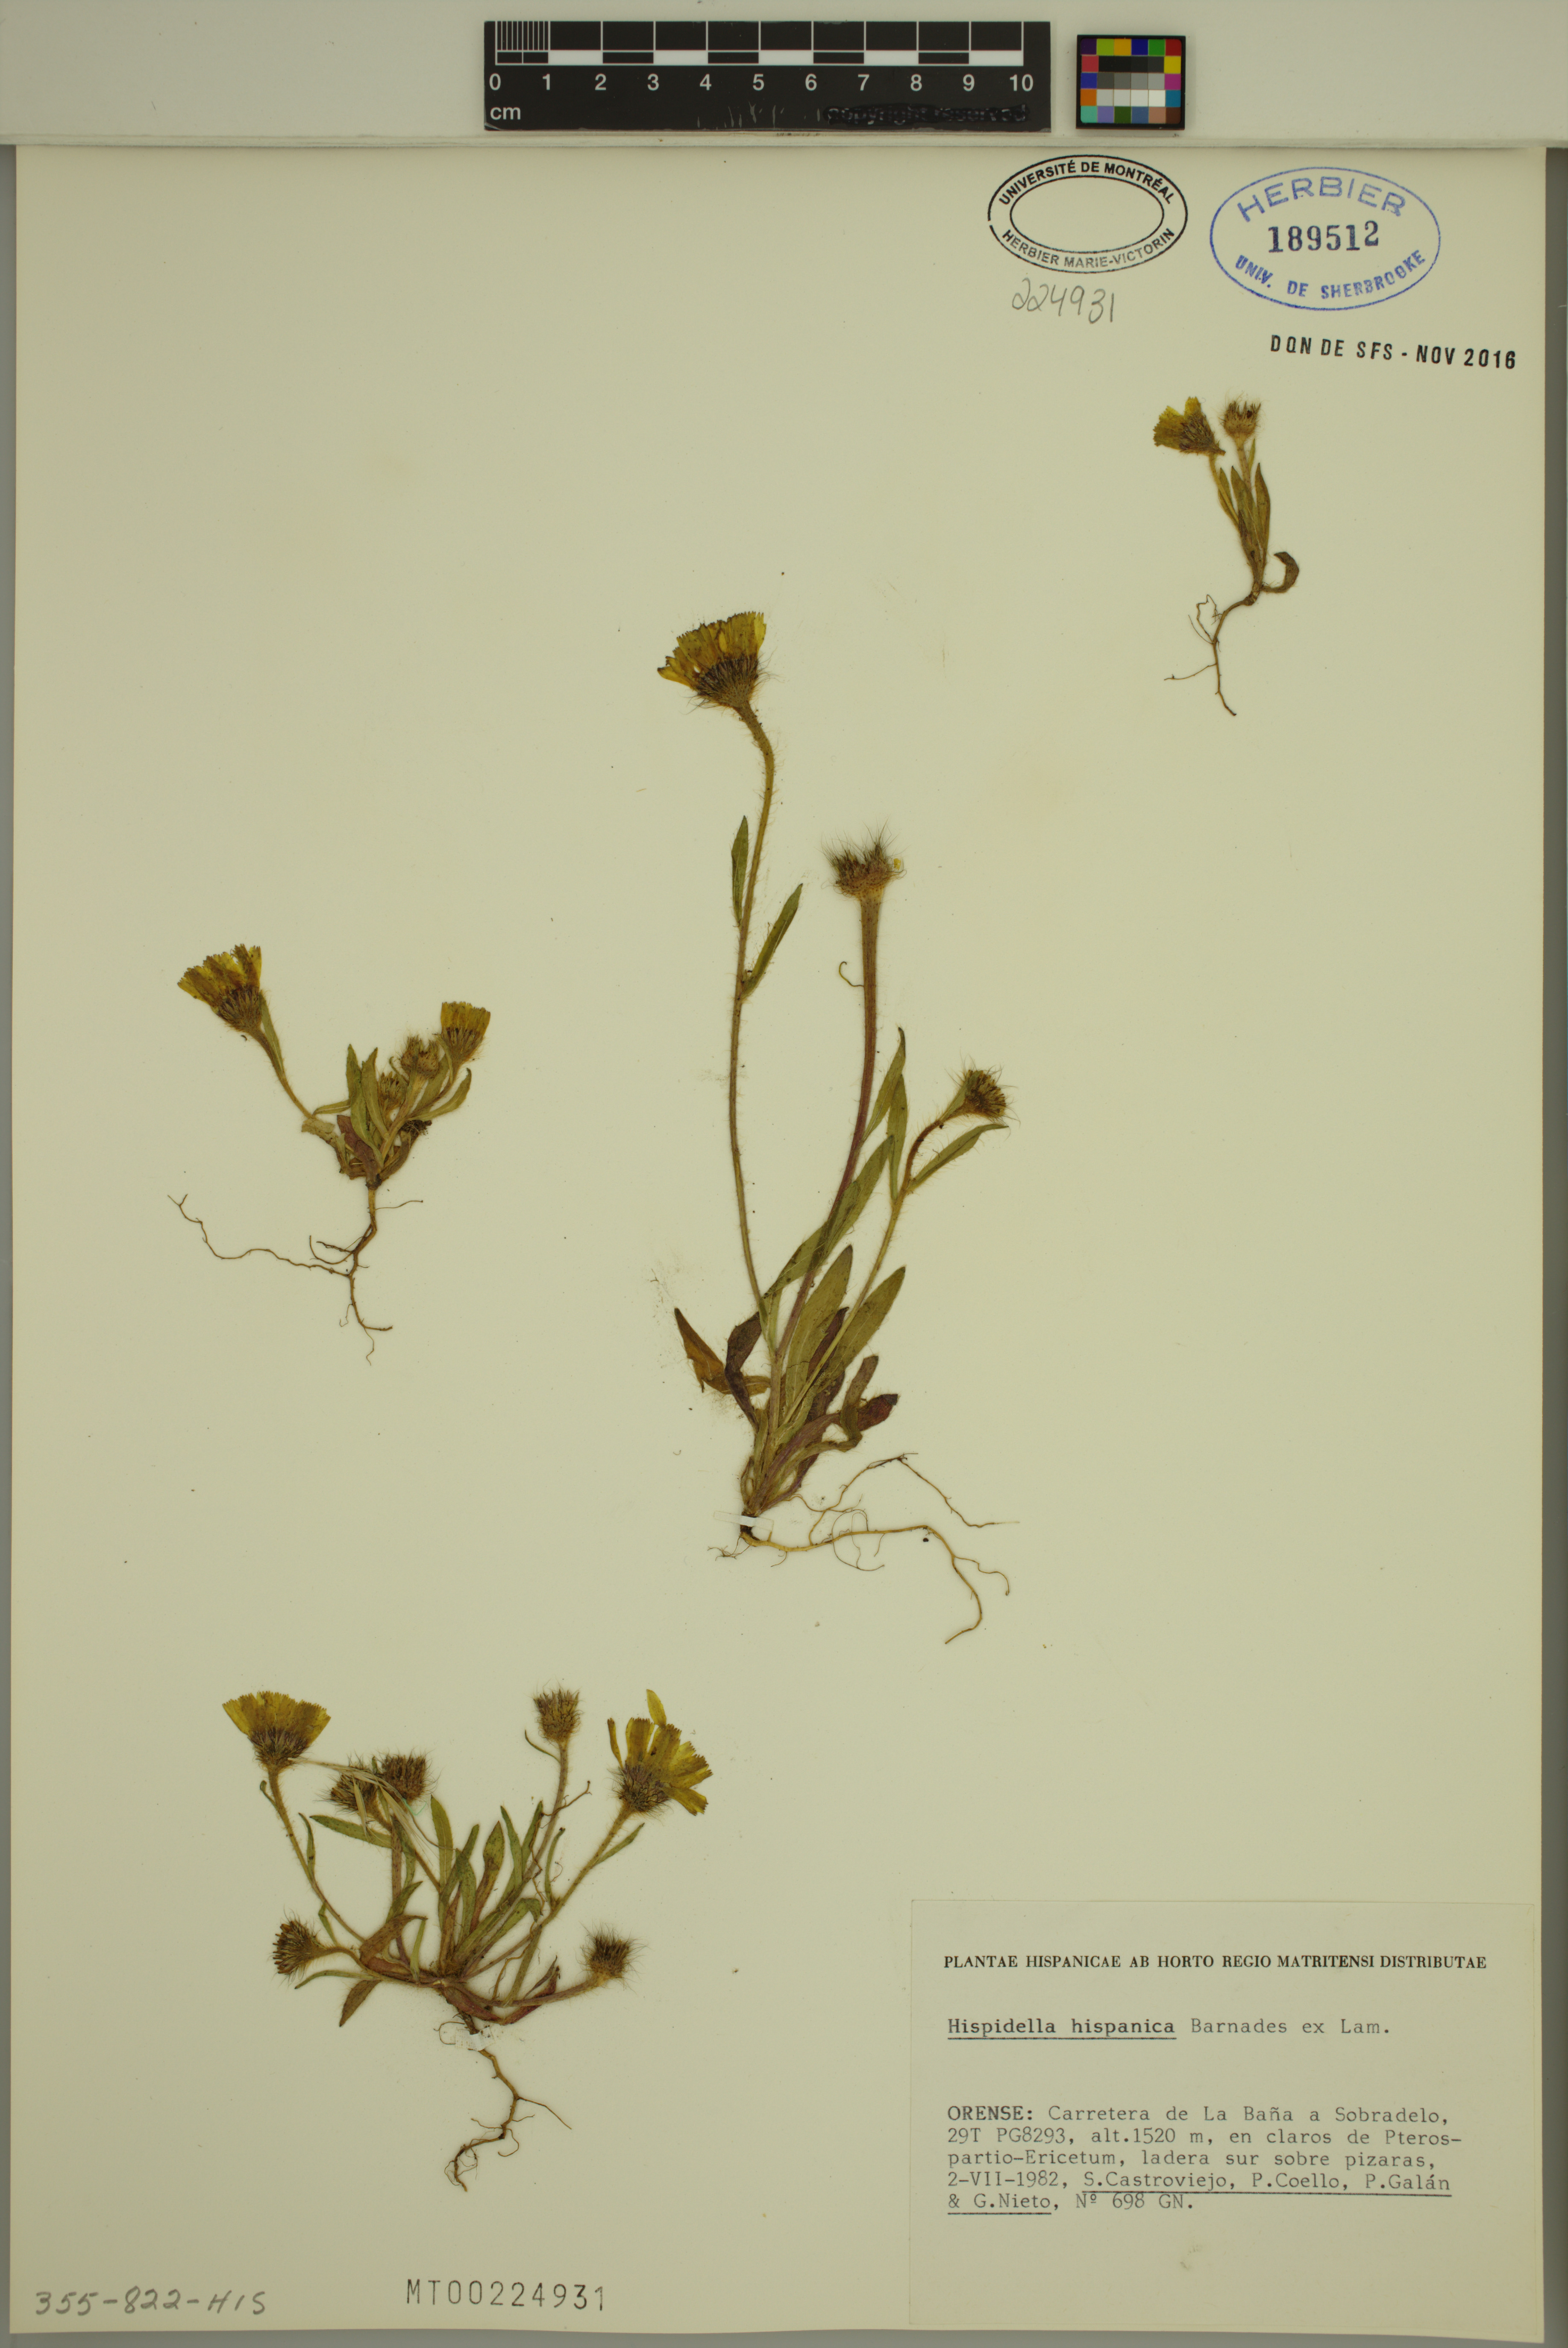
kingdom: Plantae
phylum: Tracheophyta
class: Magnoliopsida
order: Asterales
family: Asteraceae
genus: Hispidella
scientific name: Hispidella hispanica
